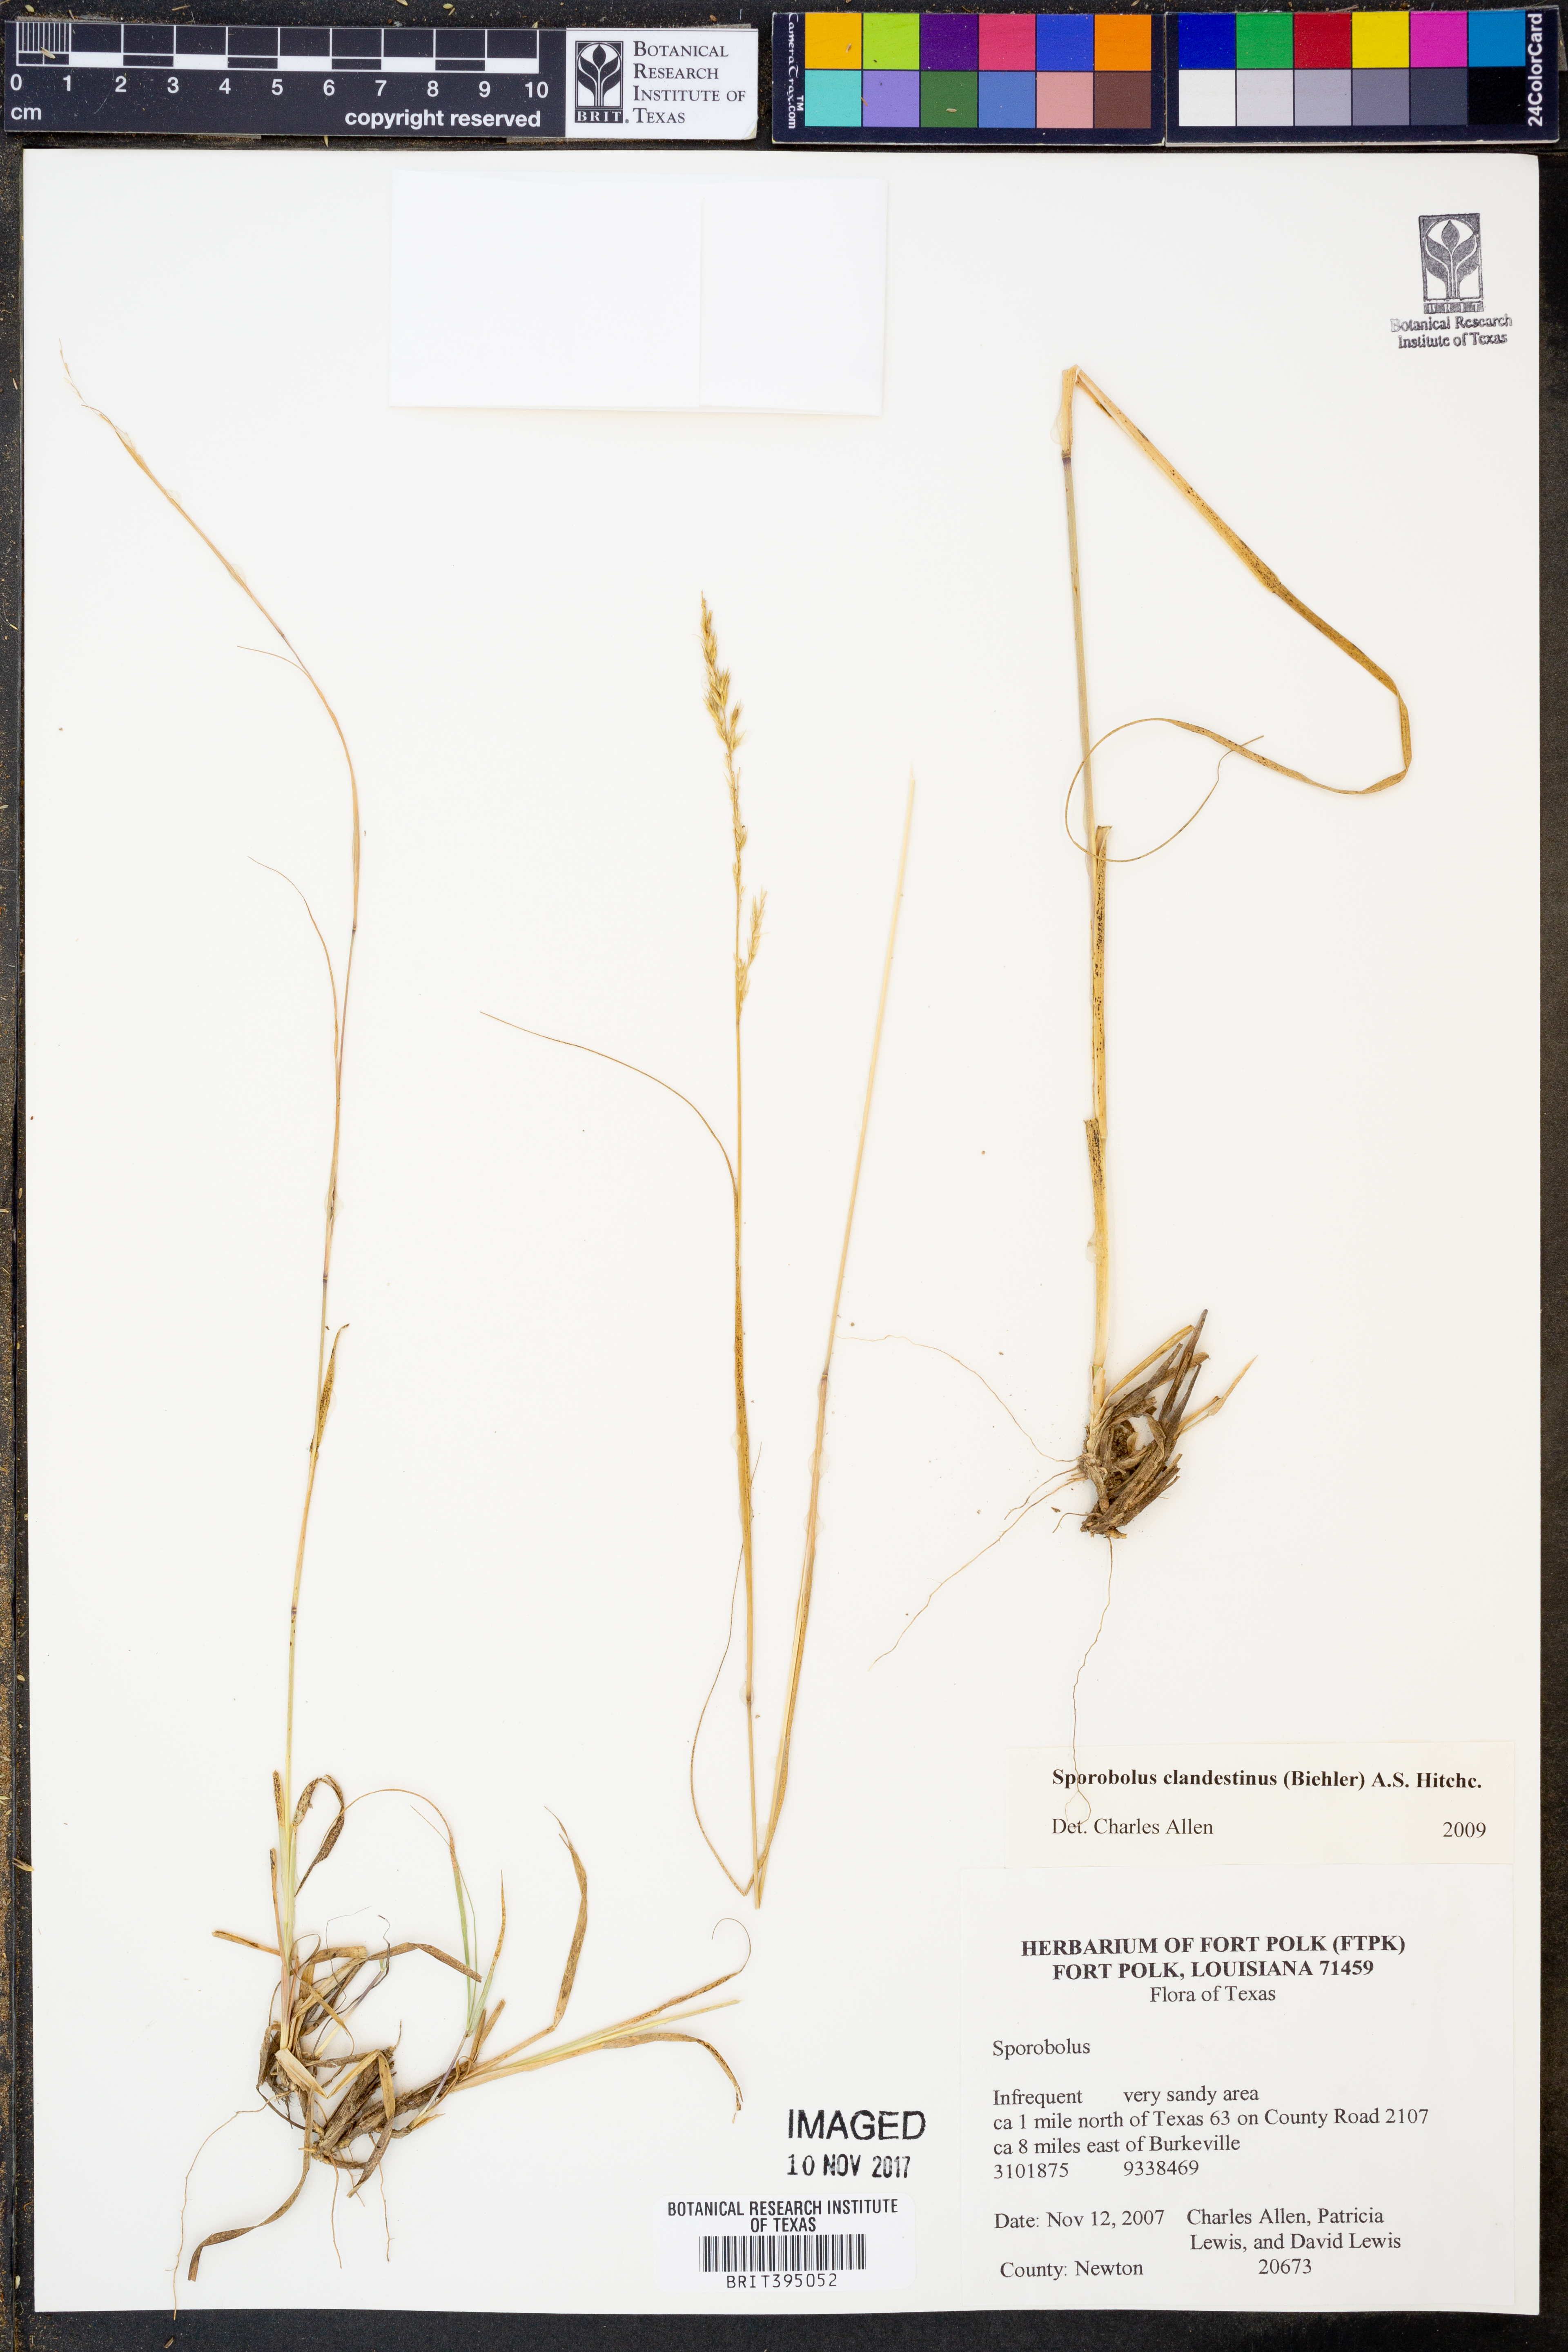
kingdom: Plantae
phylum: Tracheophyta
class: Liliopsida
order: Poales
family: Poaceae
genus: Sporobolus
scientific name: Sporobolus clandestinus
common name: Hidden dropseed
